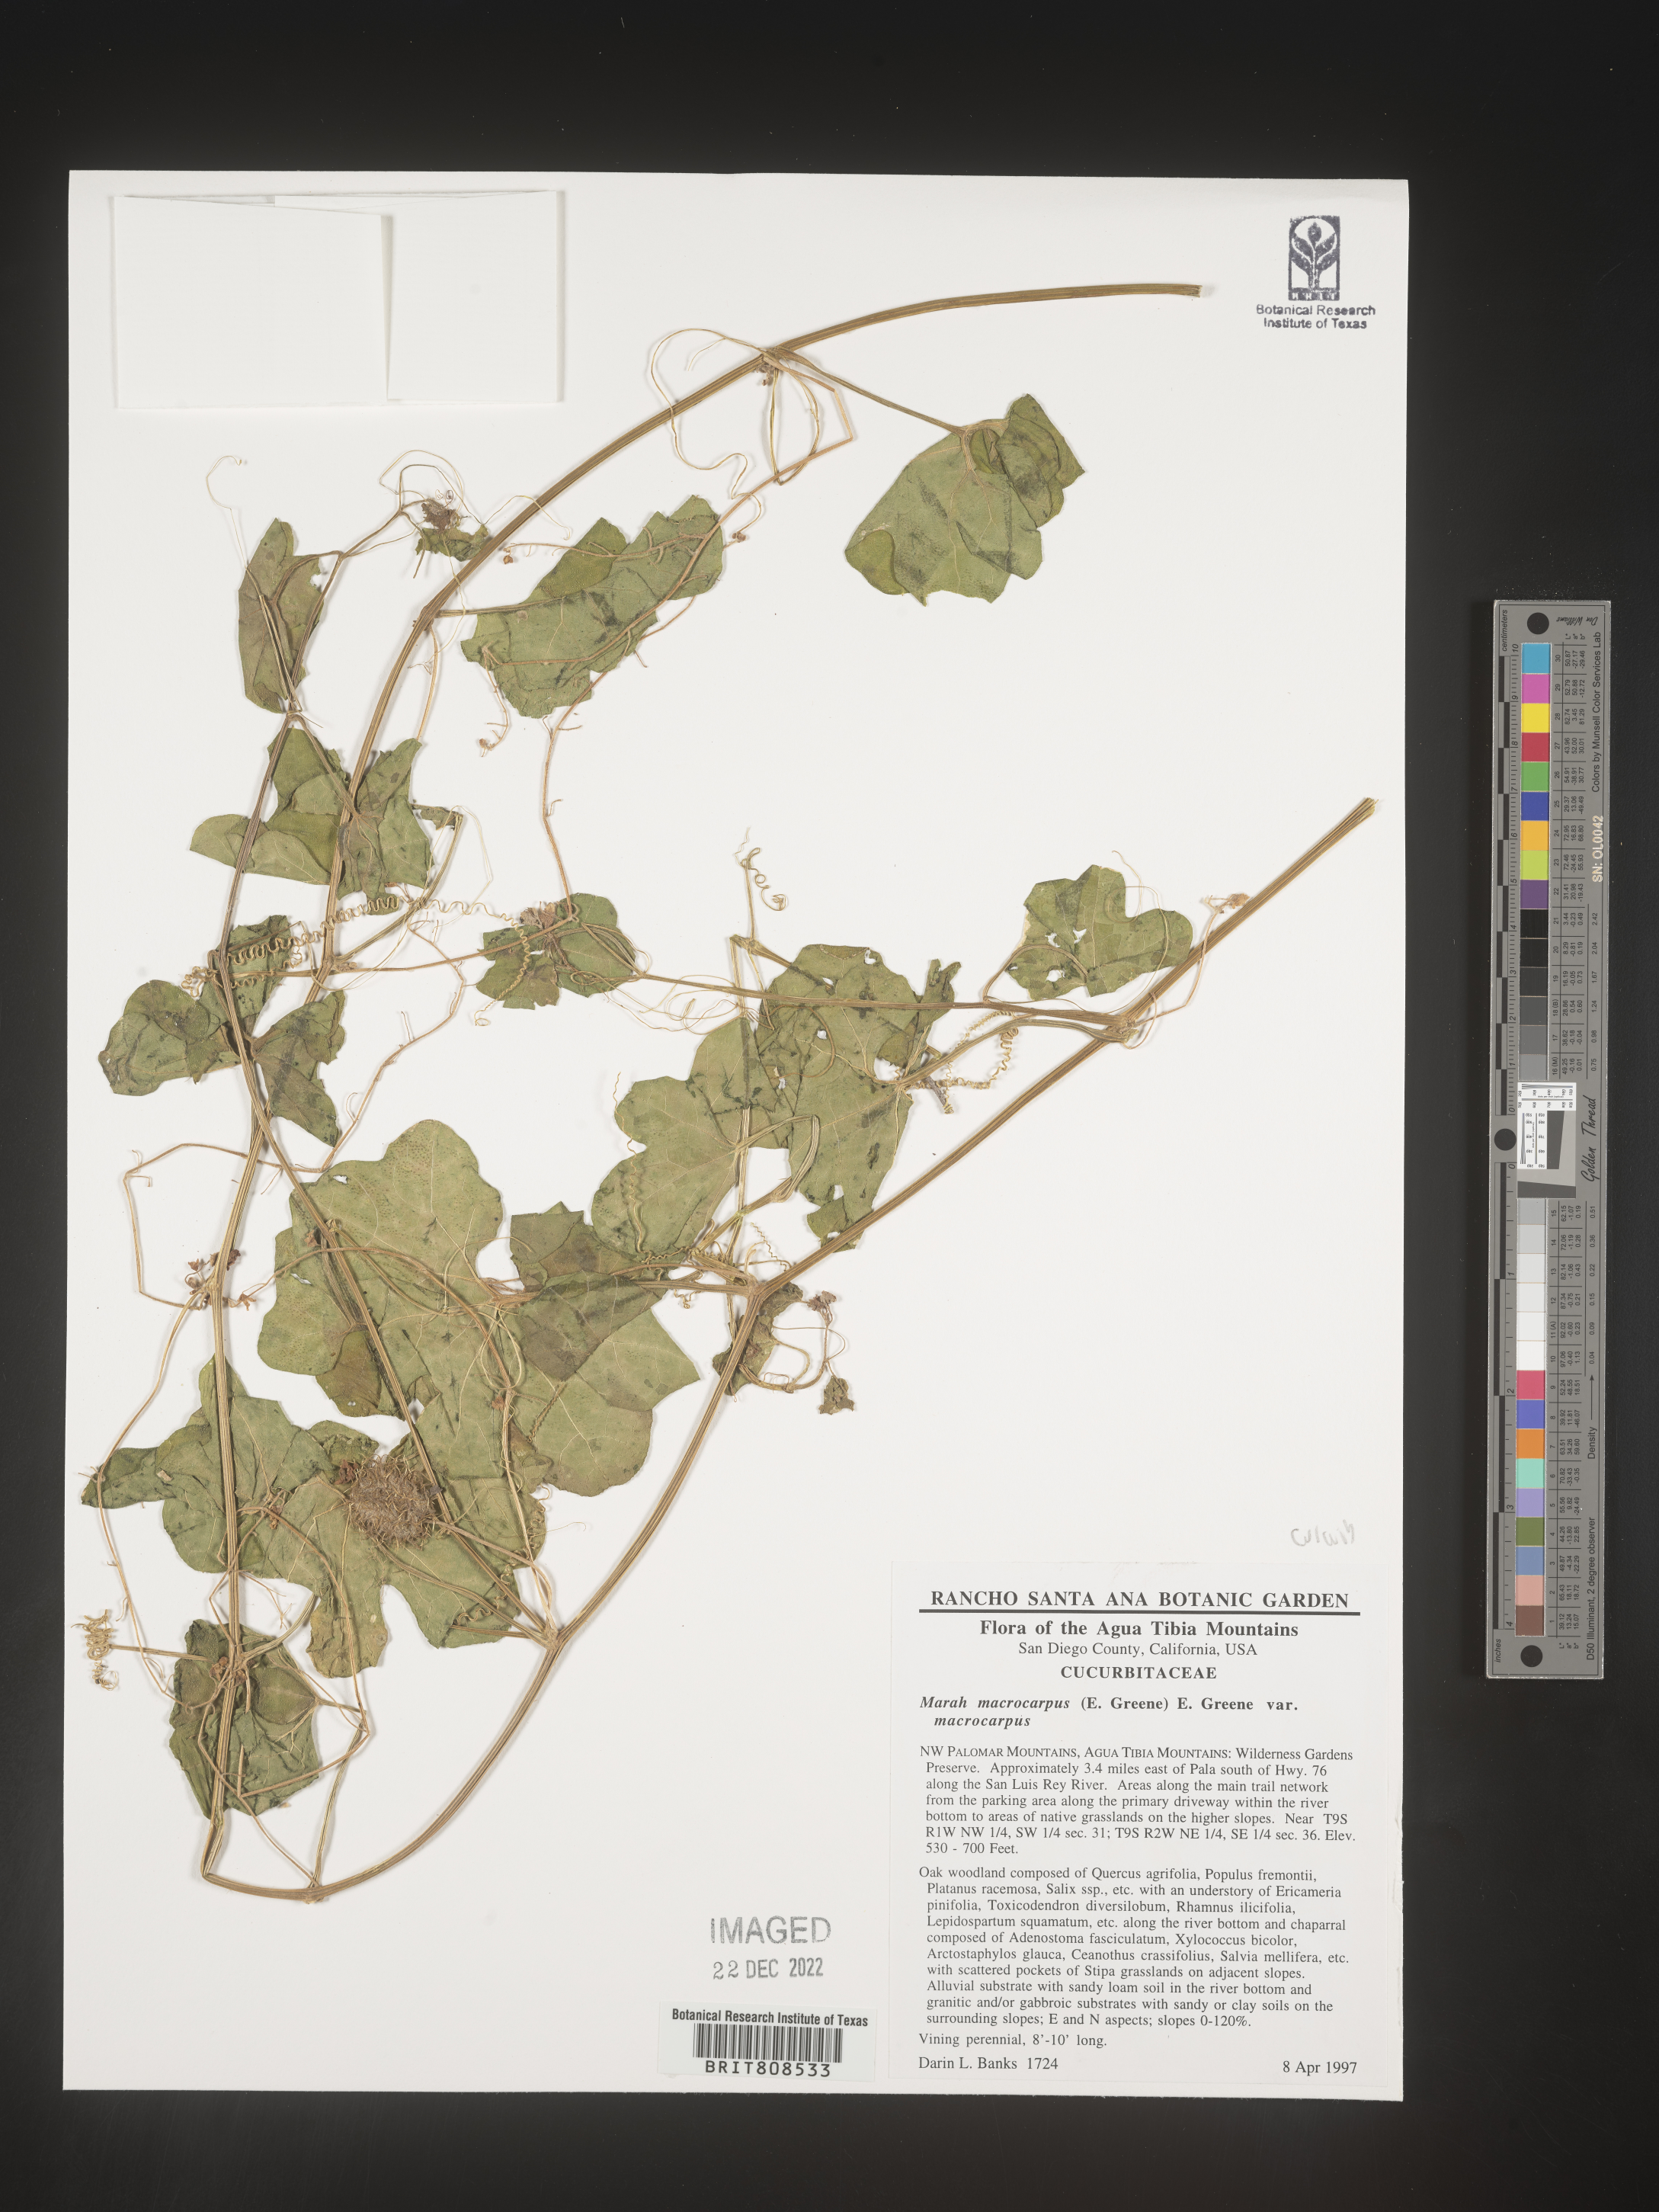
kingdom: Plantae
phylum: Tracheophyta
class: Magnoliopsida
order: Cucurbitales
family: Cucurbitaceae
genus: Marah
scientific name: Marah
